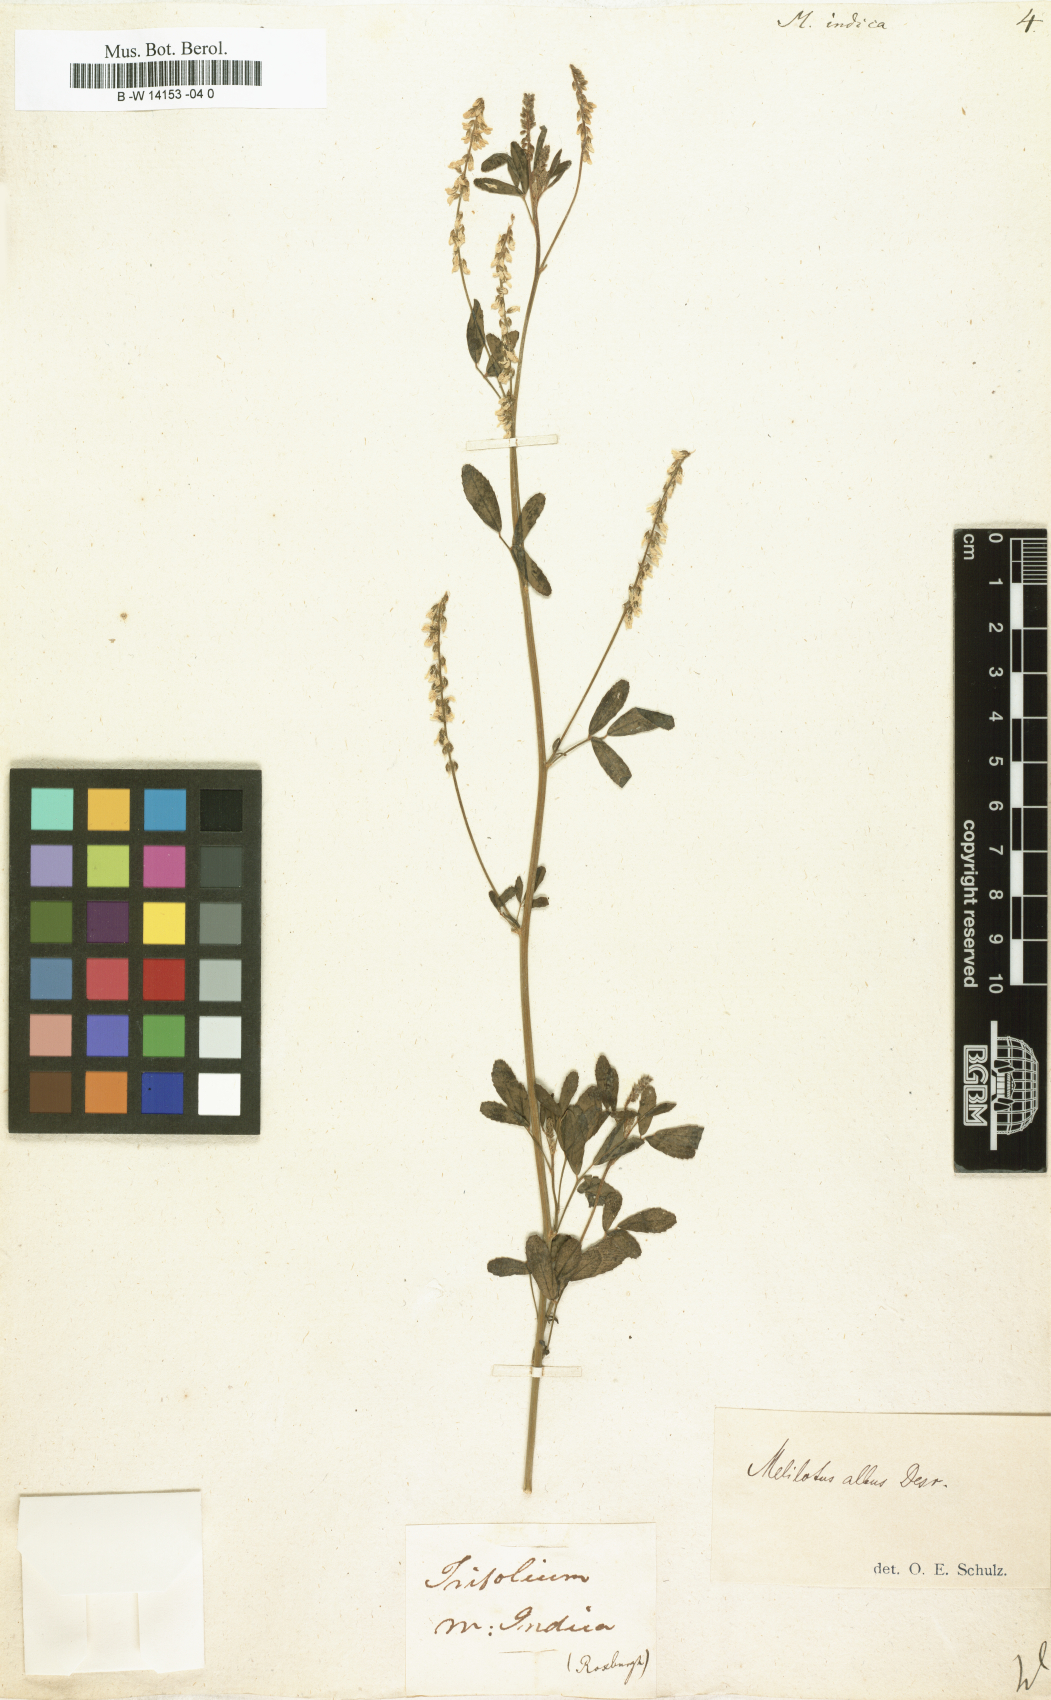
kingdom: Plantae
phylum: Tracheophyta
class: Magnoliopsida
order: Fabales
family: Fabaceae
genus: Melilotus
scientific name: Melilotus indicus
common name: Small melilot
